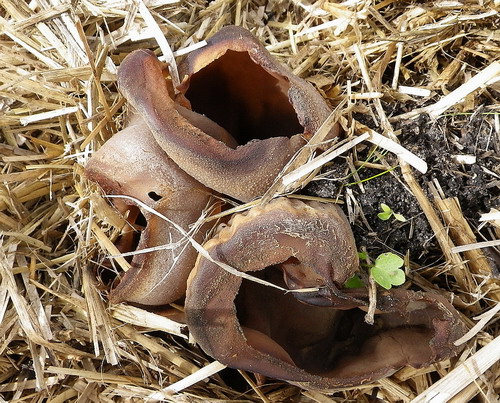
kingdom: Fungi
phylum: Ascomycota
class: Pezizomycetes
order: Pezizales
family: Pezizaceae
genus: Peziza
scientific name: Peziza vesiculosa
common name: blære-bægersvamp
